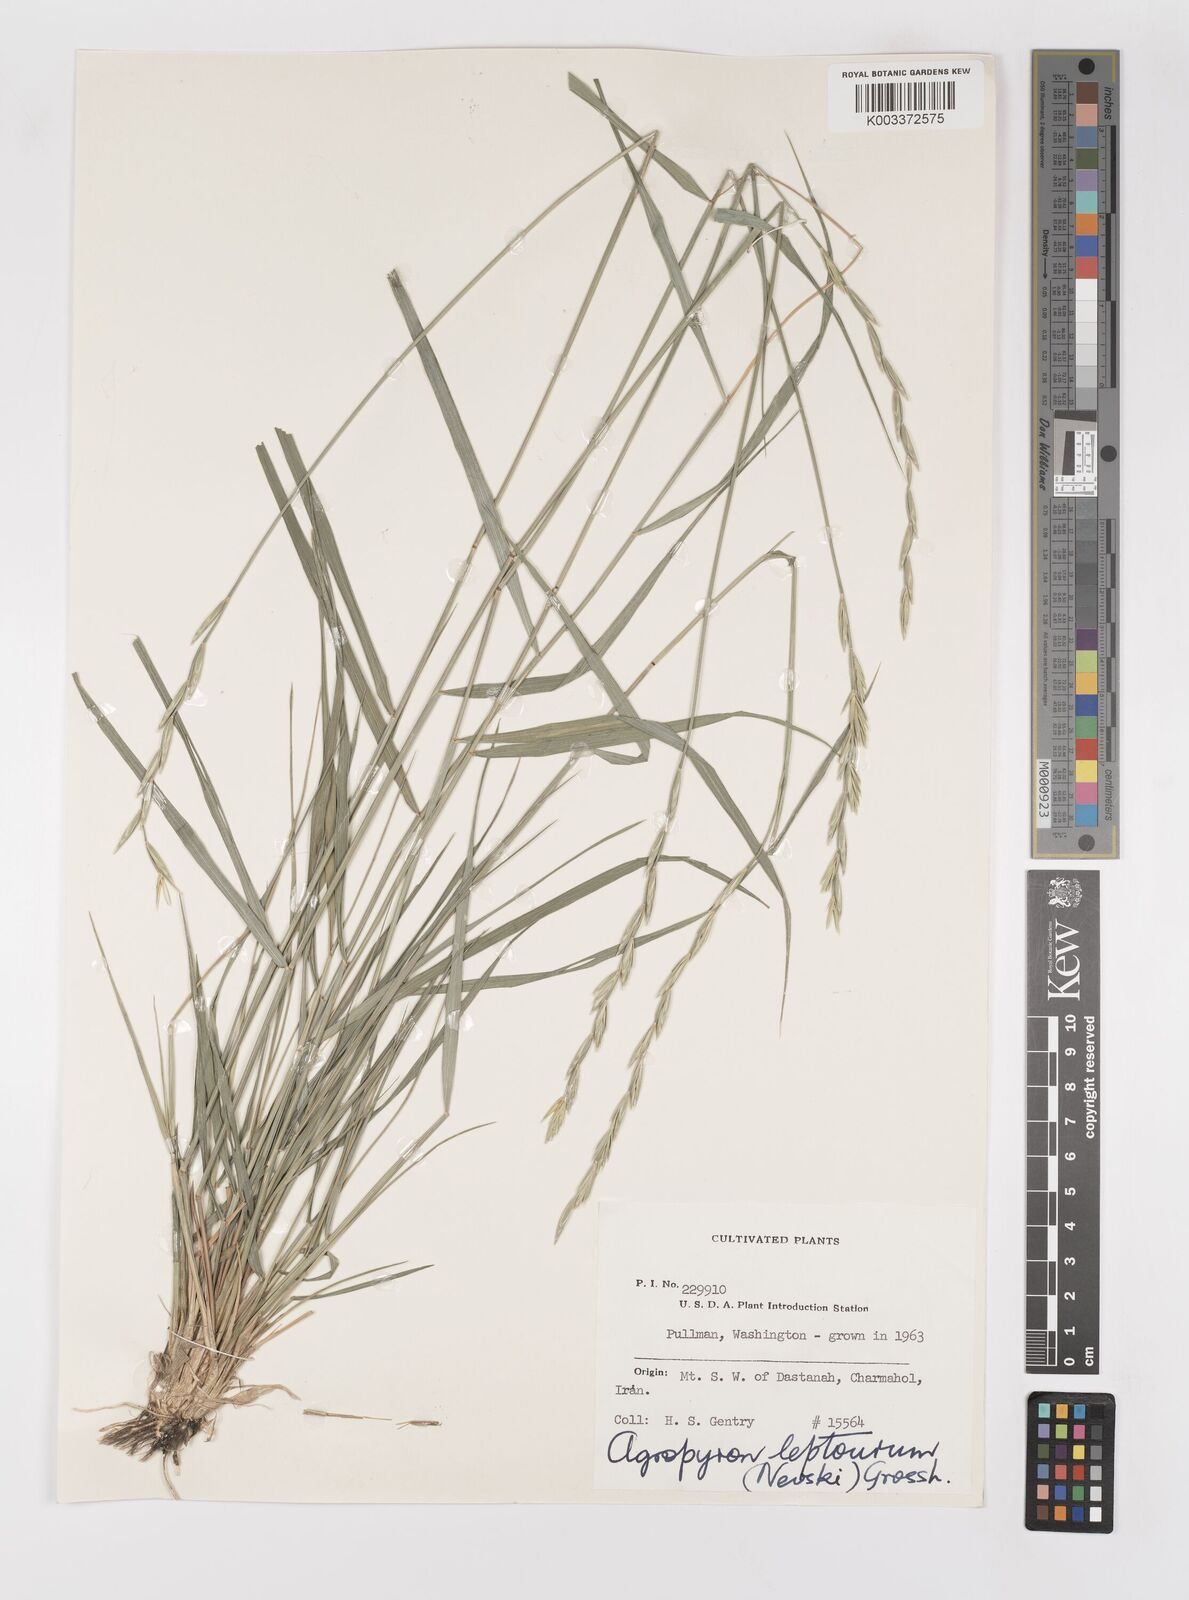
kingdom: Plantae
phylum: Tracheophyta
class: Liliopsida
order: Poales
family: Poaceae
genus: Elymus
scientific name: Elymus transhyrcanus
